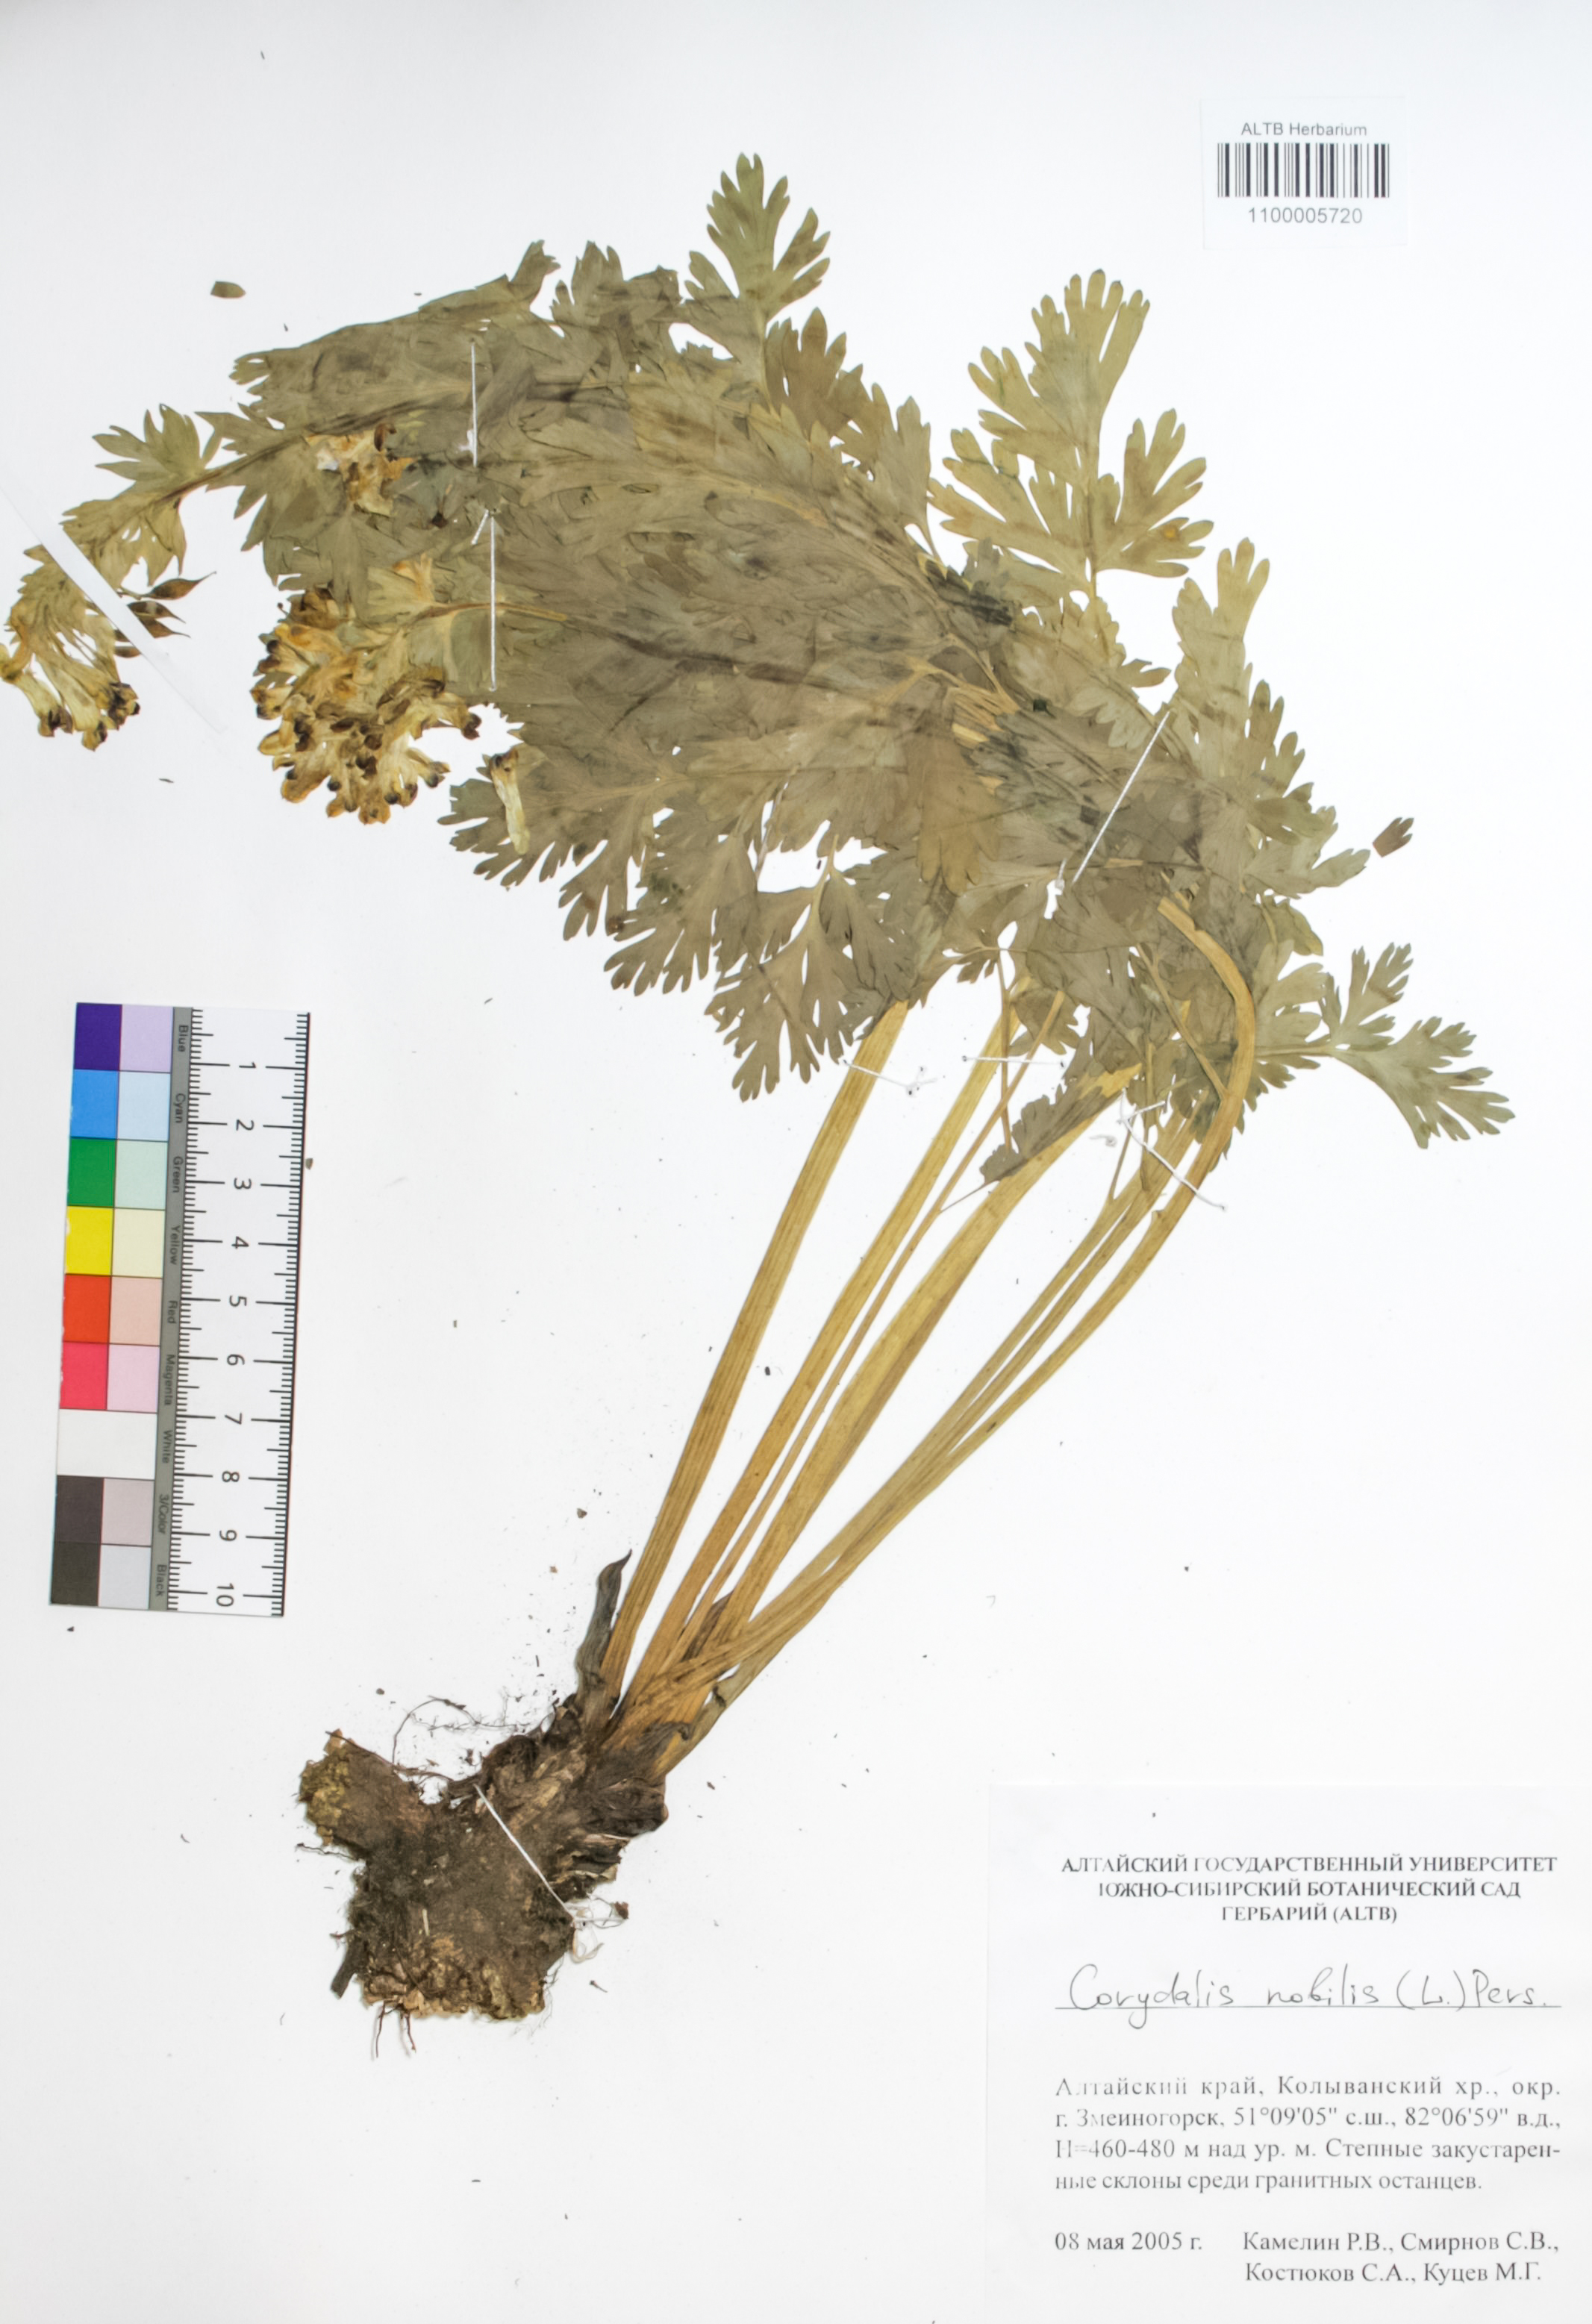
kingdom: Plantae
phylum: Tracheophyta
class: Magnoliopsida
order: Ranunculales
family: Papaveraceae
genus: Corydalis
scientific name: Corydalis nobilis
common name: Siberian corydalis
